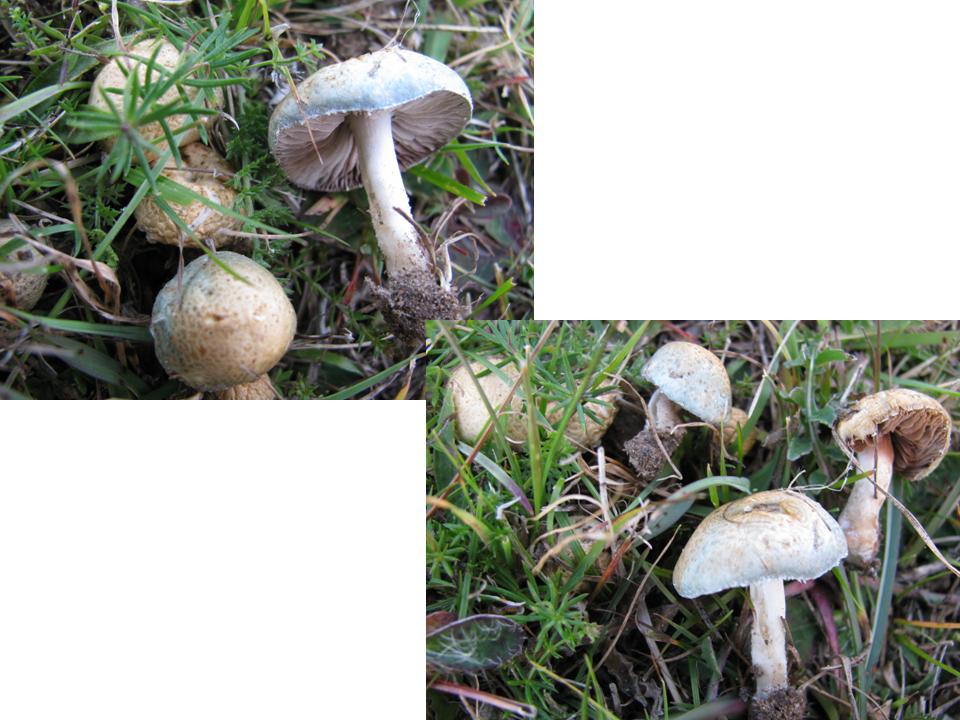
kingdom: Fungi
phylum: Basidiomycota
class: Agaricomycetes
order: Agaricales
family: Strophariaceae
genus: Stropharia
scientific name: Stropharia aeruginosa
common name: spanskgrøn bredblad
